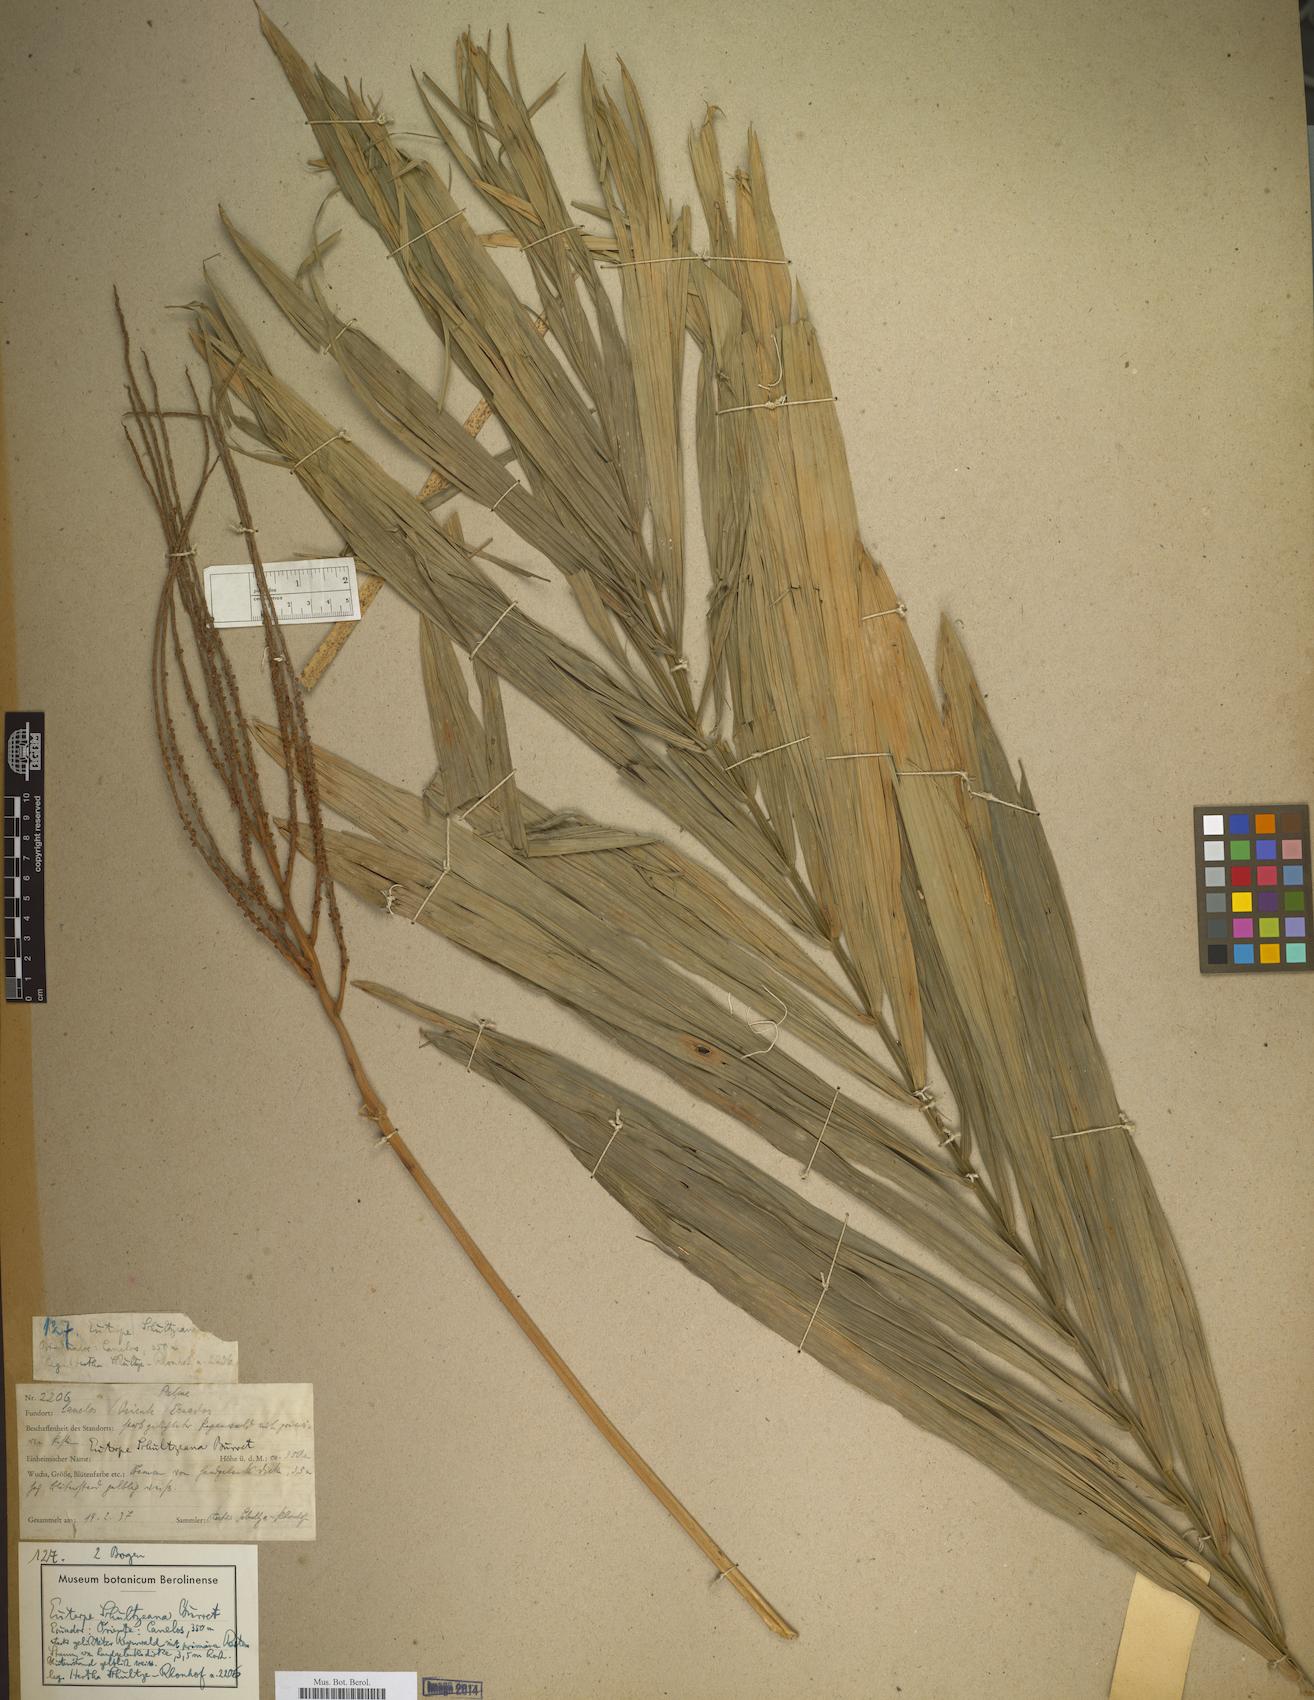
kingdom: Plantae
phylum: Tracheophyta
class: Liliopsida
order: Arecales
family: Arecaceae
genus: Prestoea
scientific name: Prestoea schultzeana
